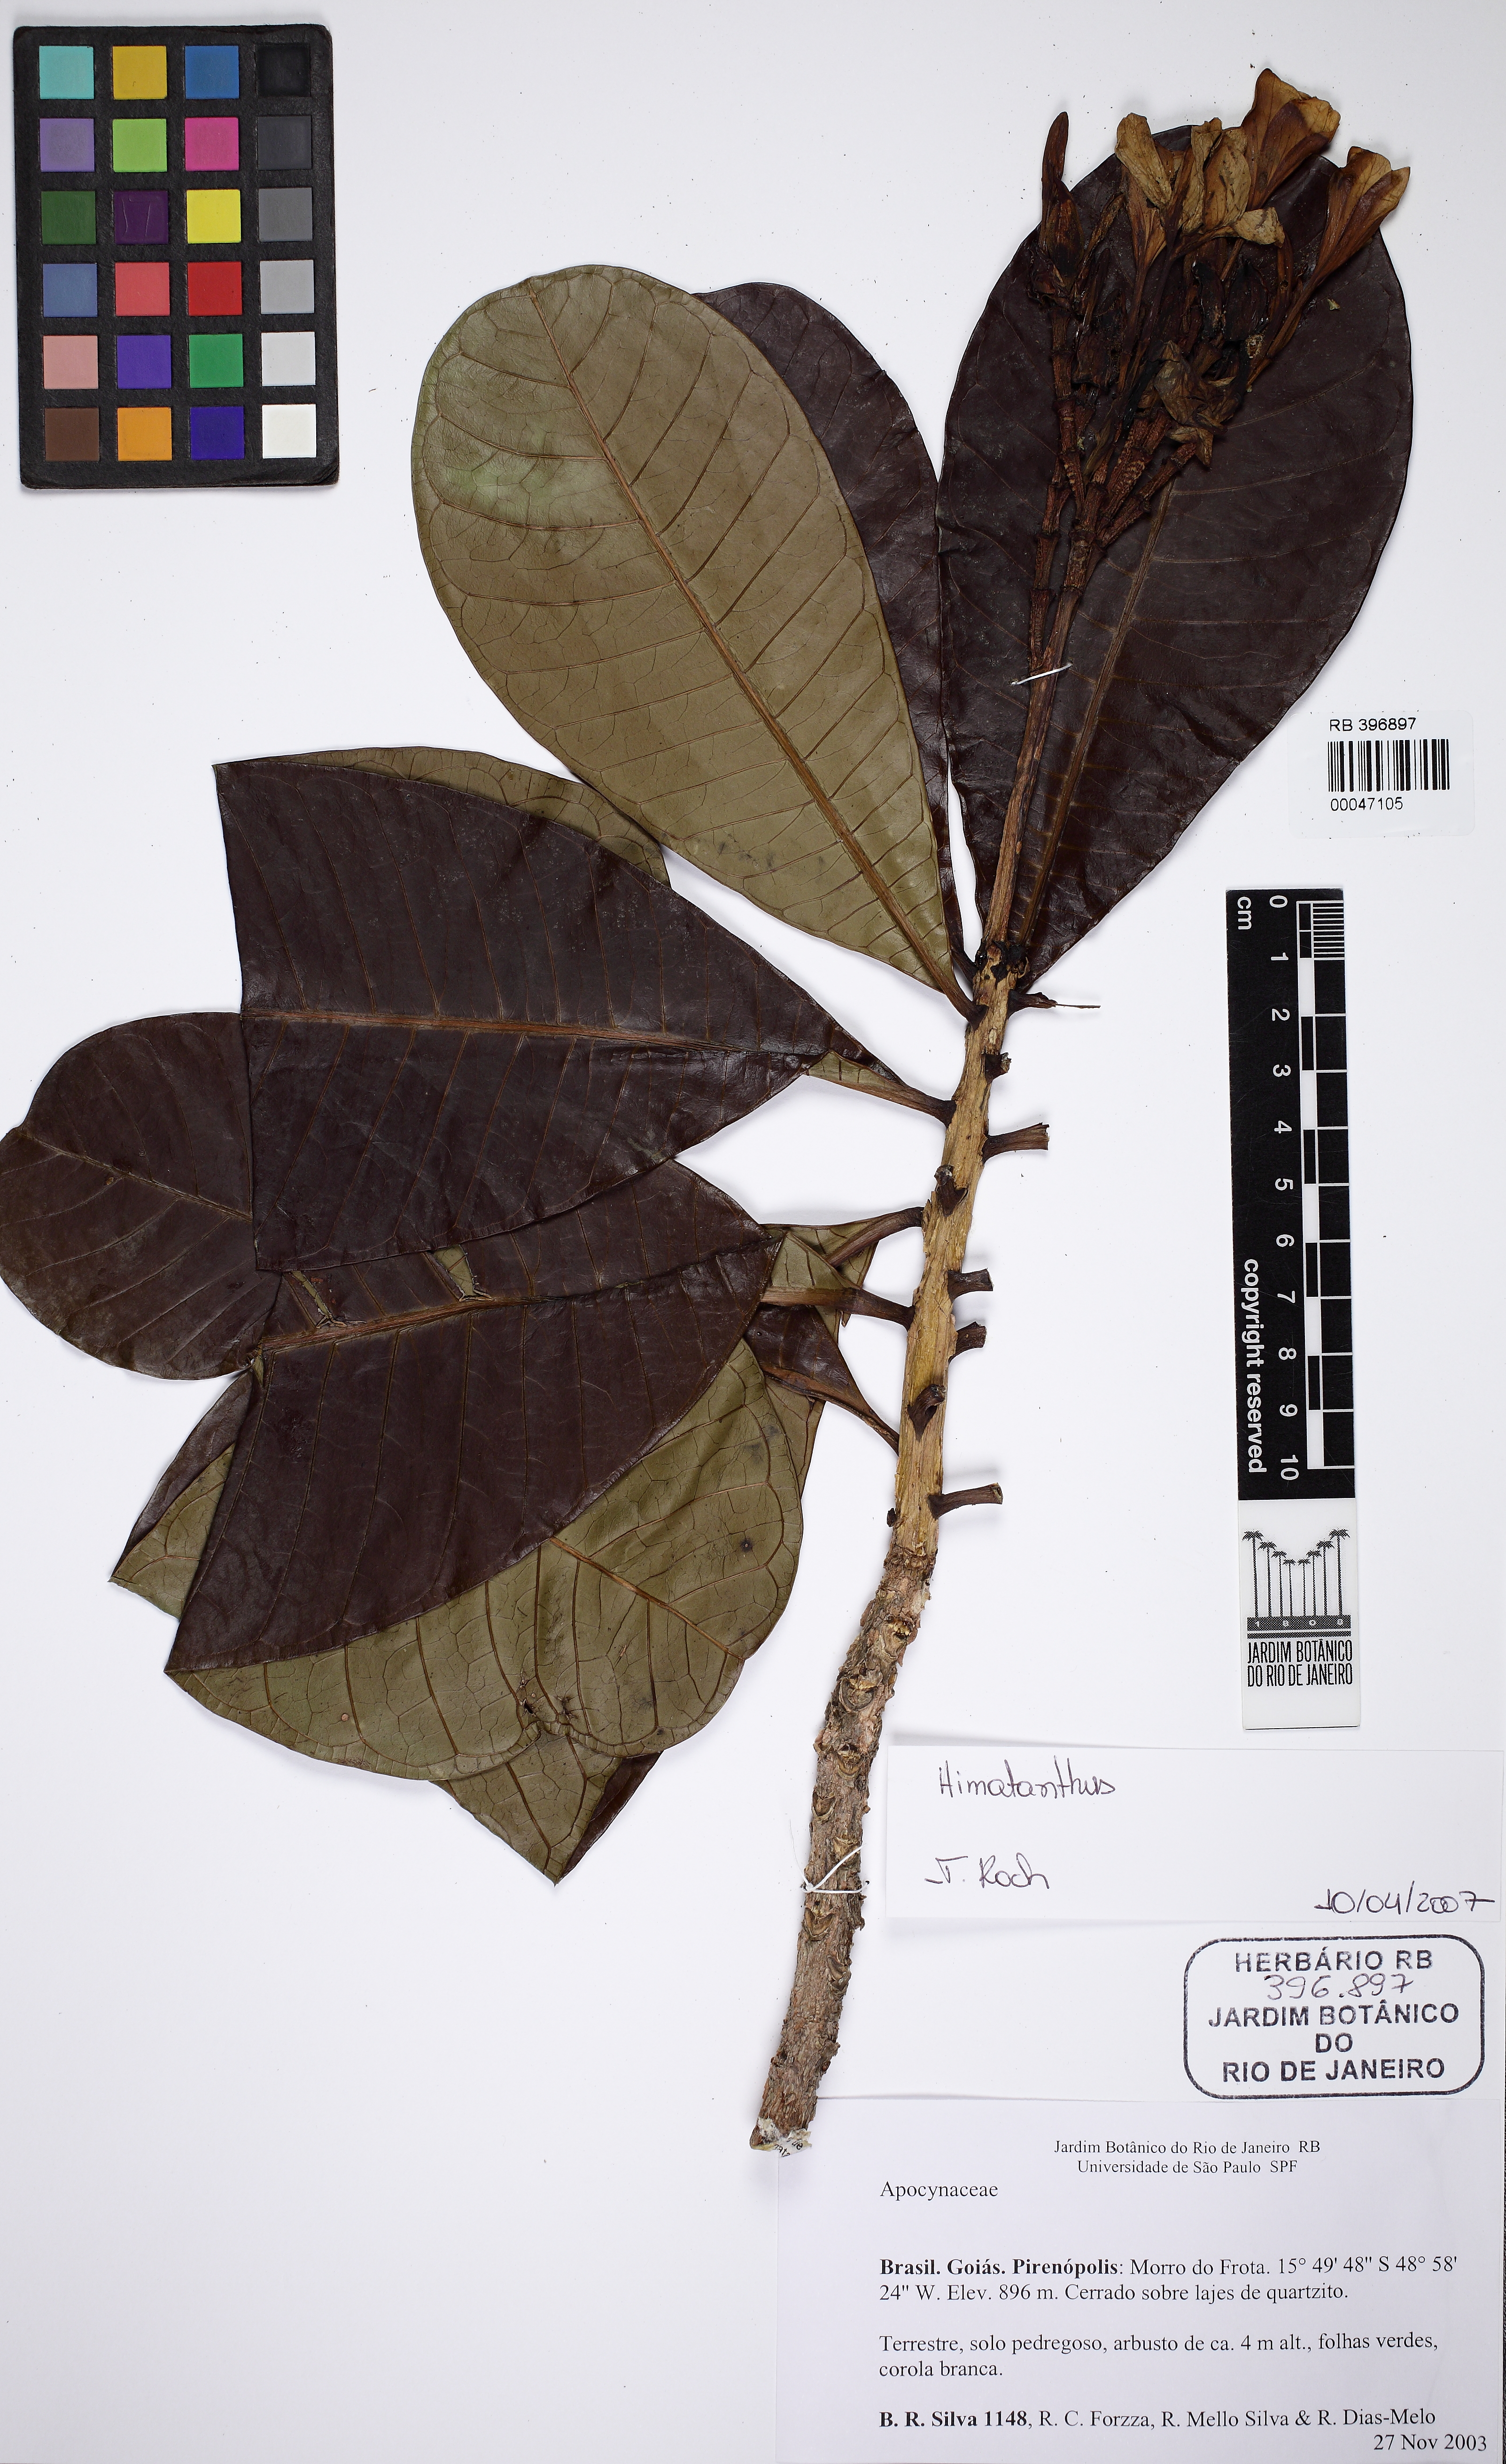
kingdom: Plantae
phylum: Tracheophyta
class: Magnoliopsida
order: Gentianales
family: Apocynaceae
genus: Himatanthus
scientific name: Himatanthus
